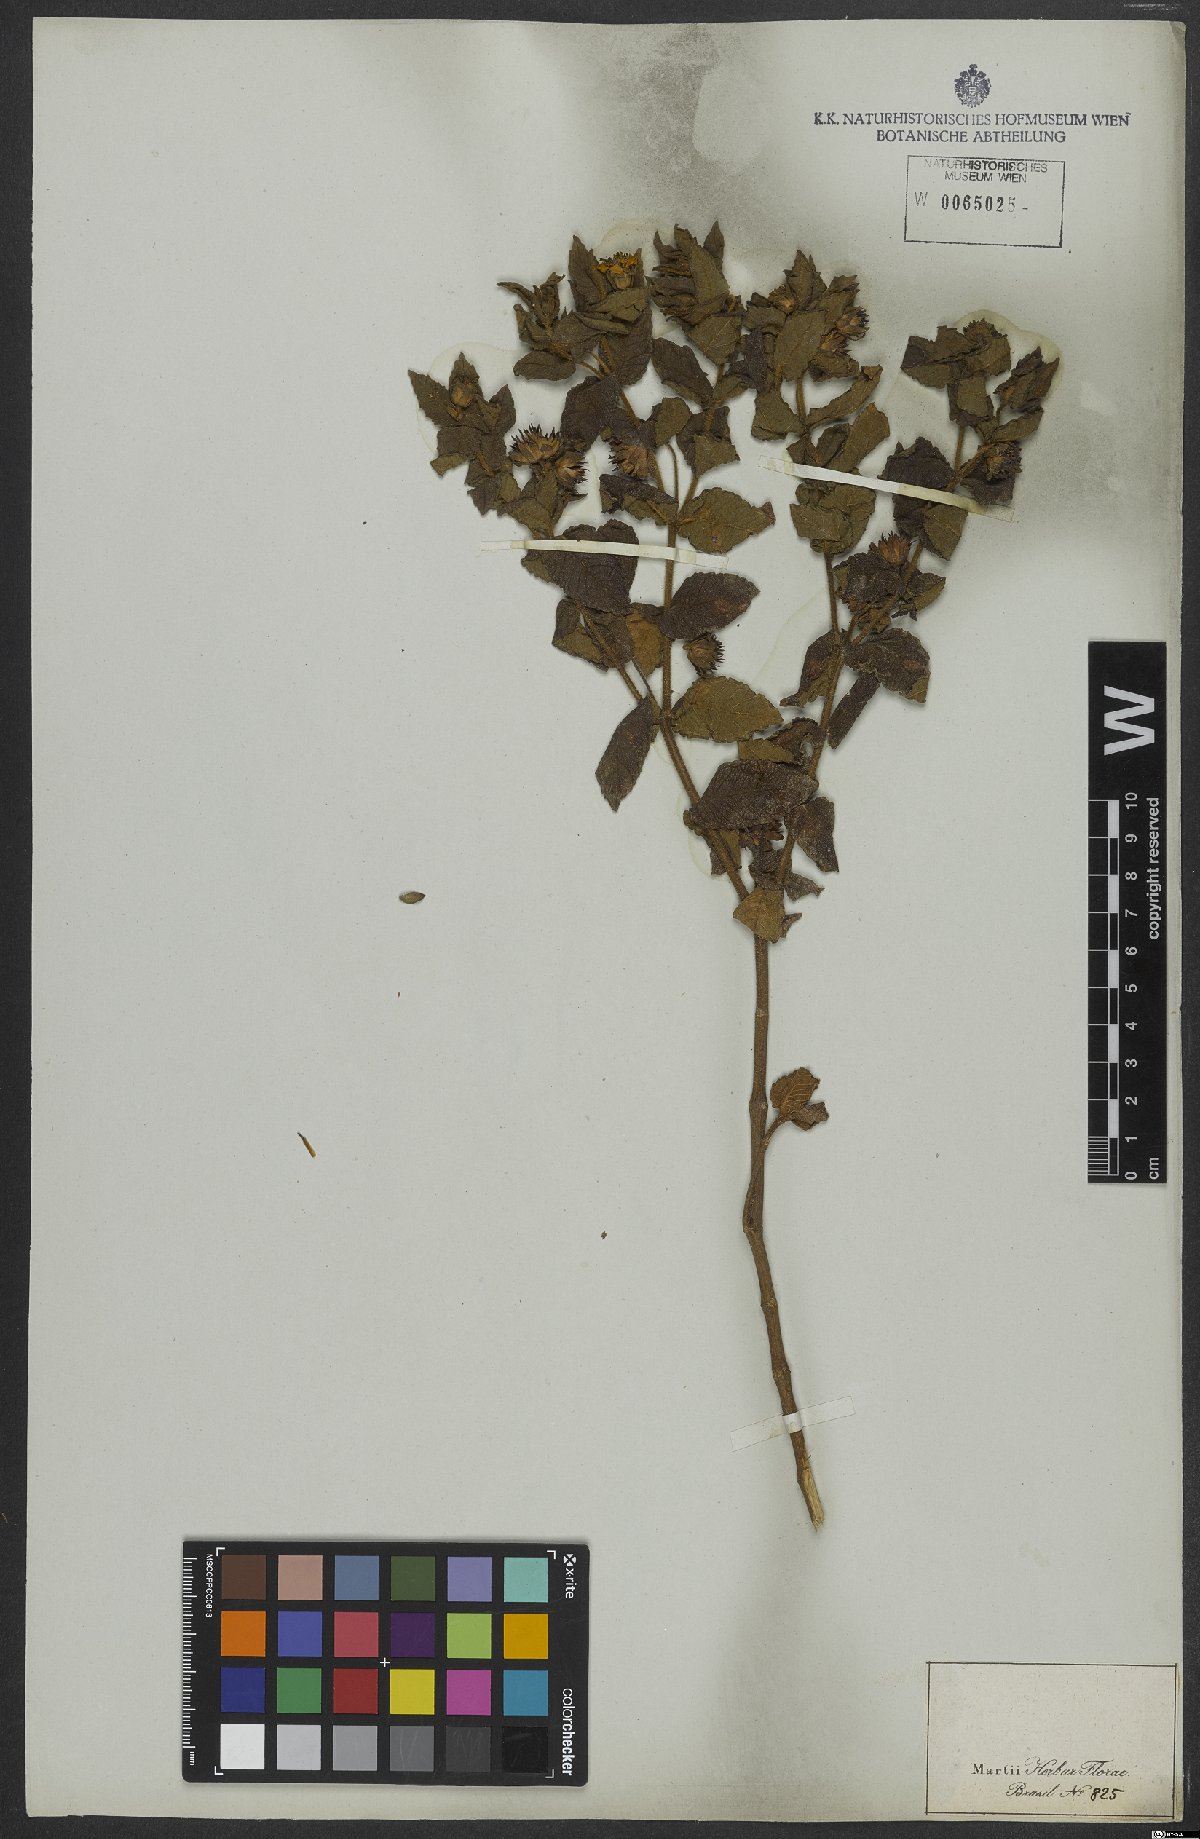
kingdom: Plantae
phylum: Tracheophyta
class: Magnoliopsida
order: Asterales
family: Asteraceae
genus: Viguiera
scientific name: Viguiera
